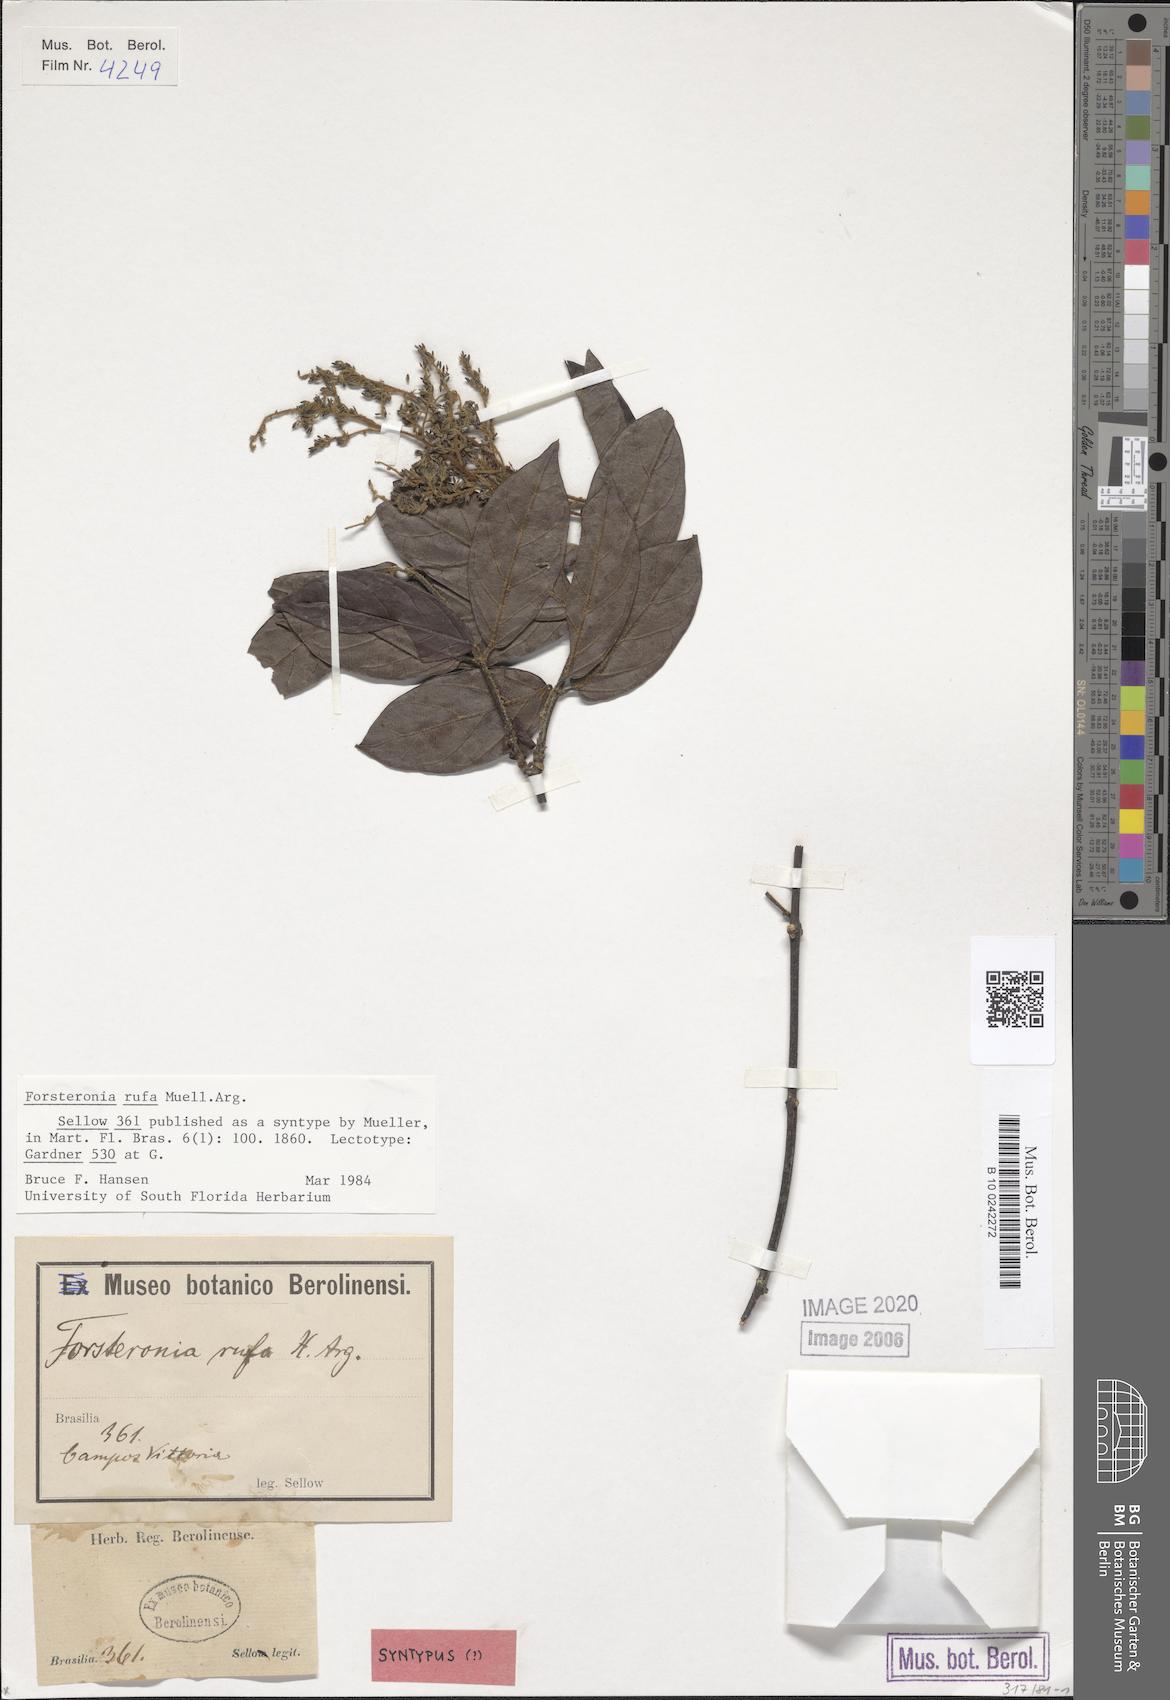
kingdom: Plantae
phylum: Tracheophyta
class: Magnoliopsida
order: Gentianales
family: Apocynaceae
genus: Forsteronia
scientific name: Forsteronia rufa
